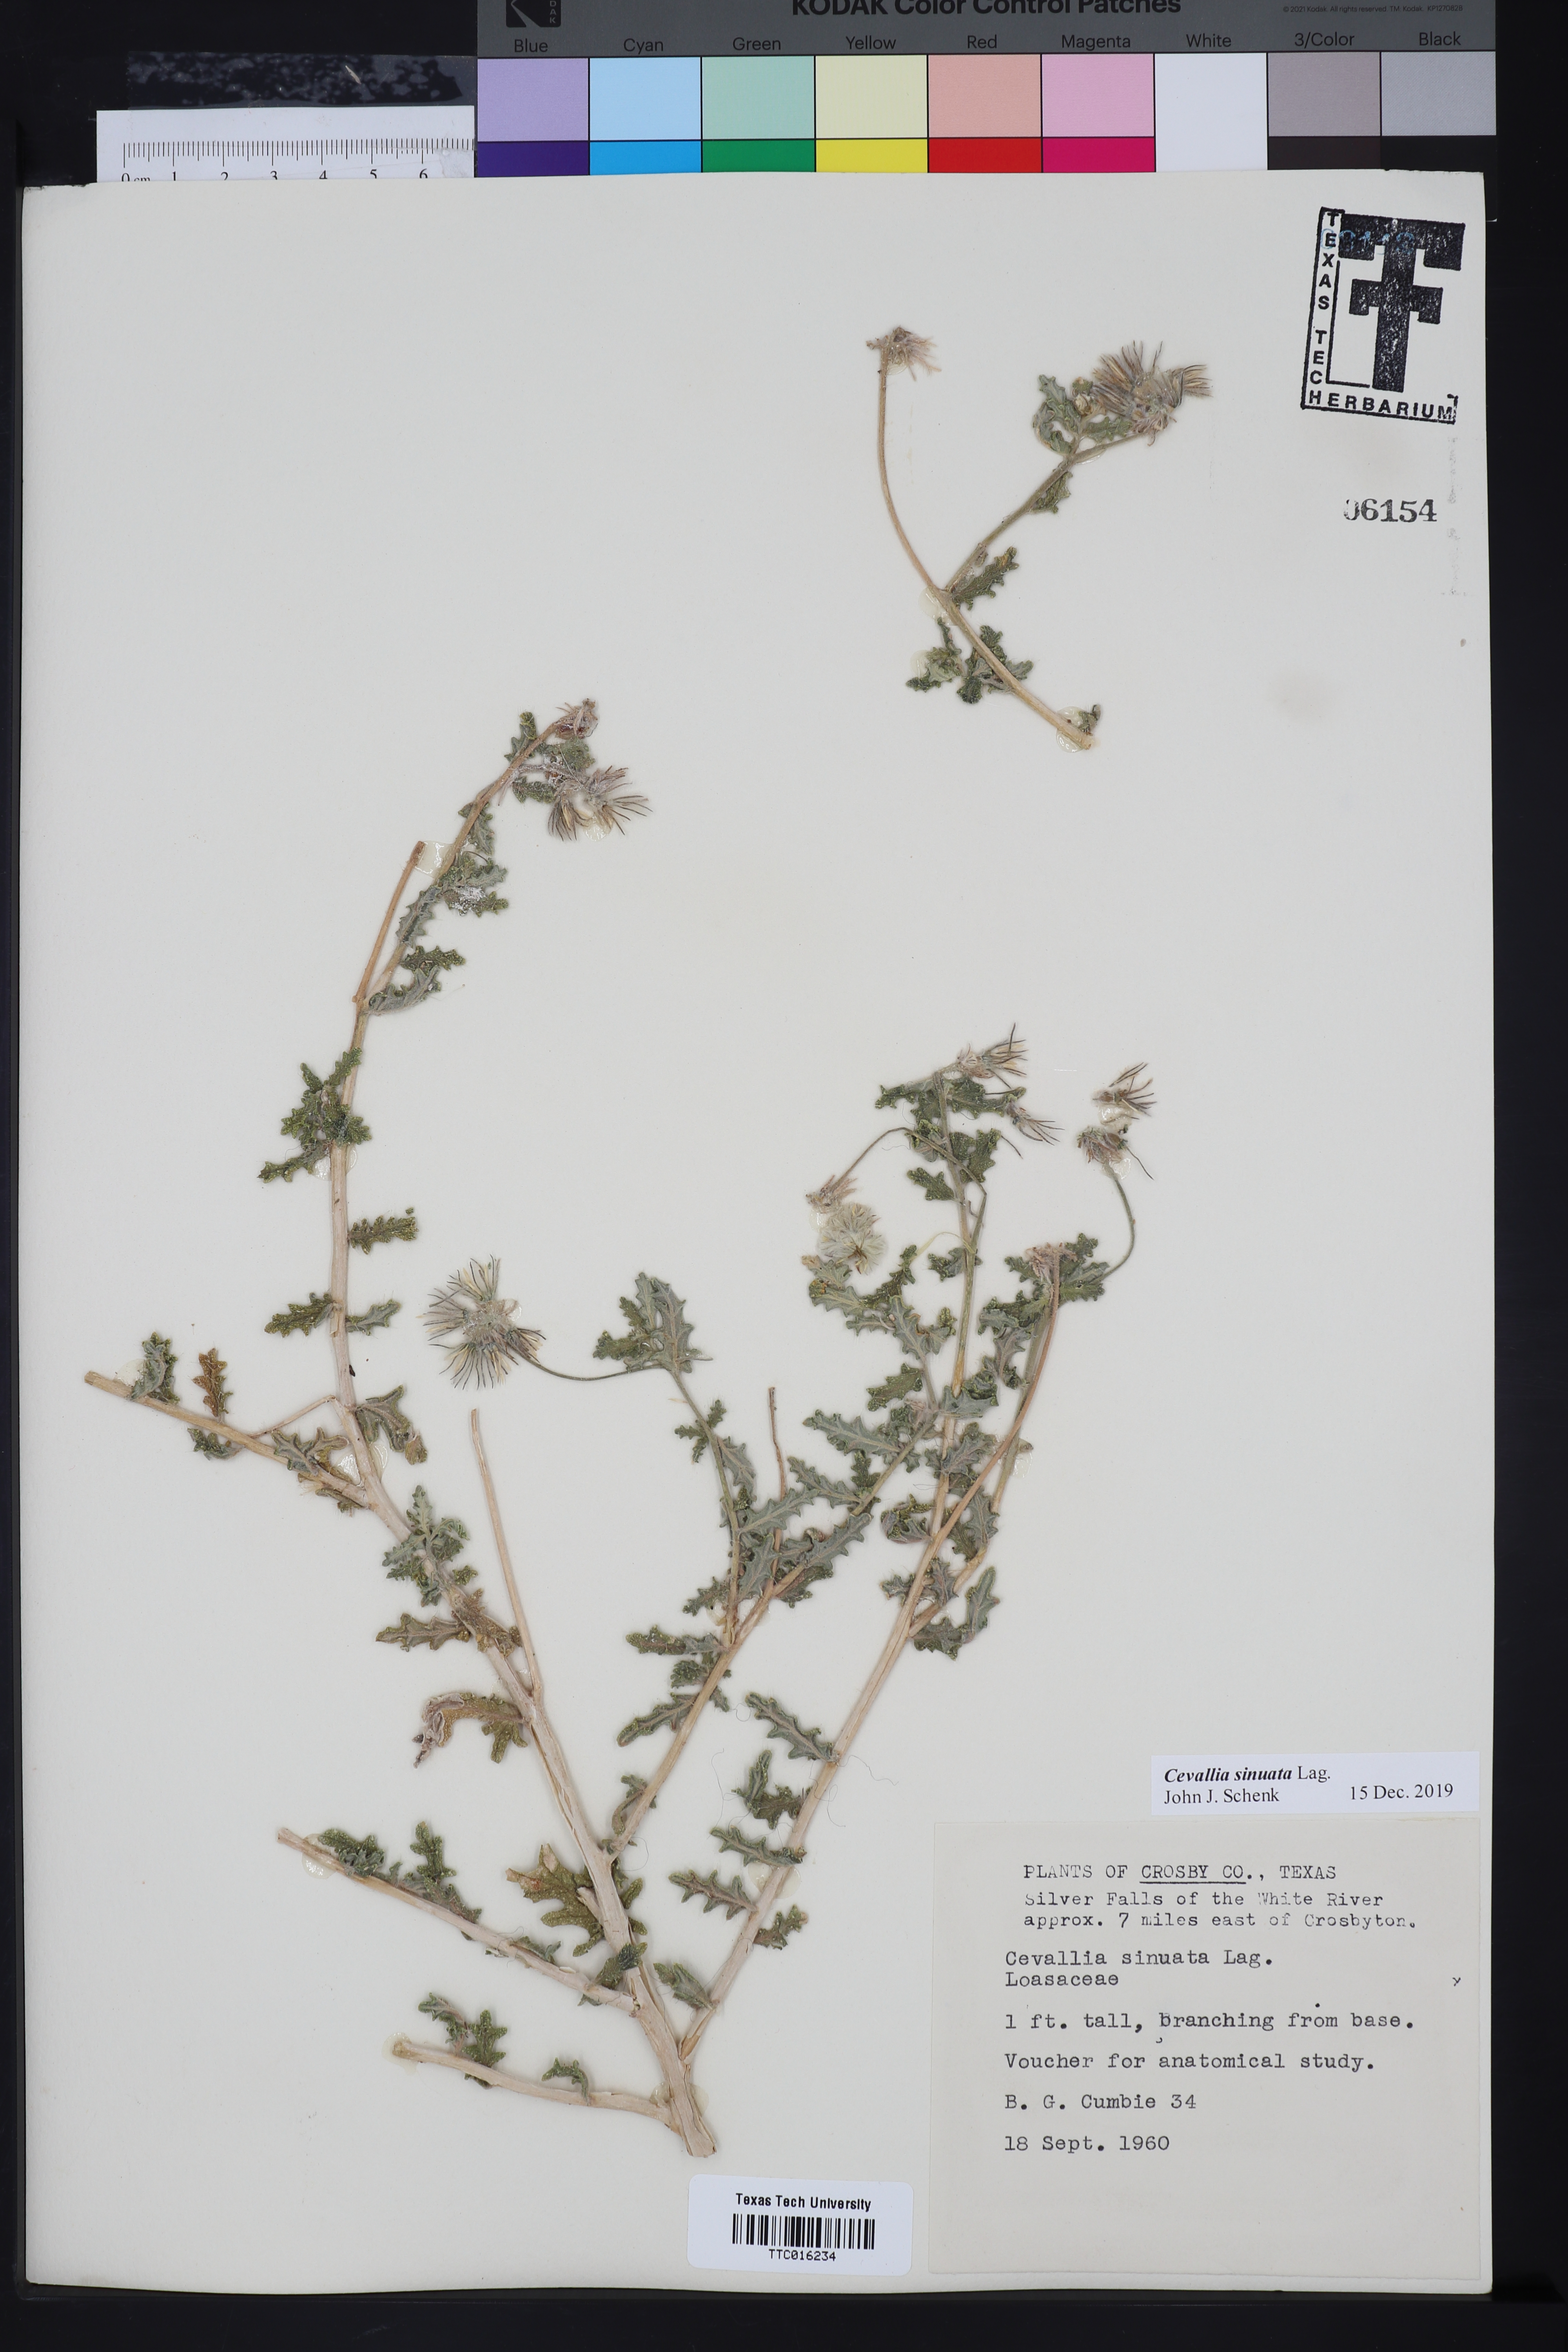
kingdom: Plantae
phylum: Tracheophyta
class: Magnoliopsida
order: Cornales
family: Loasaceae
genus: Cevallia
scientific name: Cevallia sinuata
